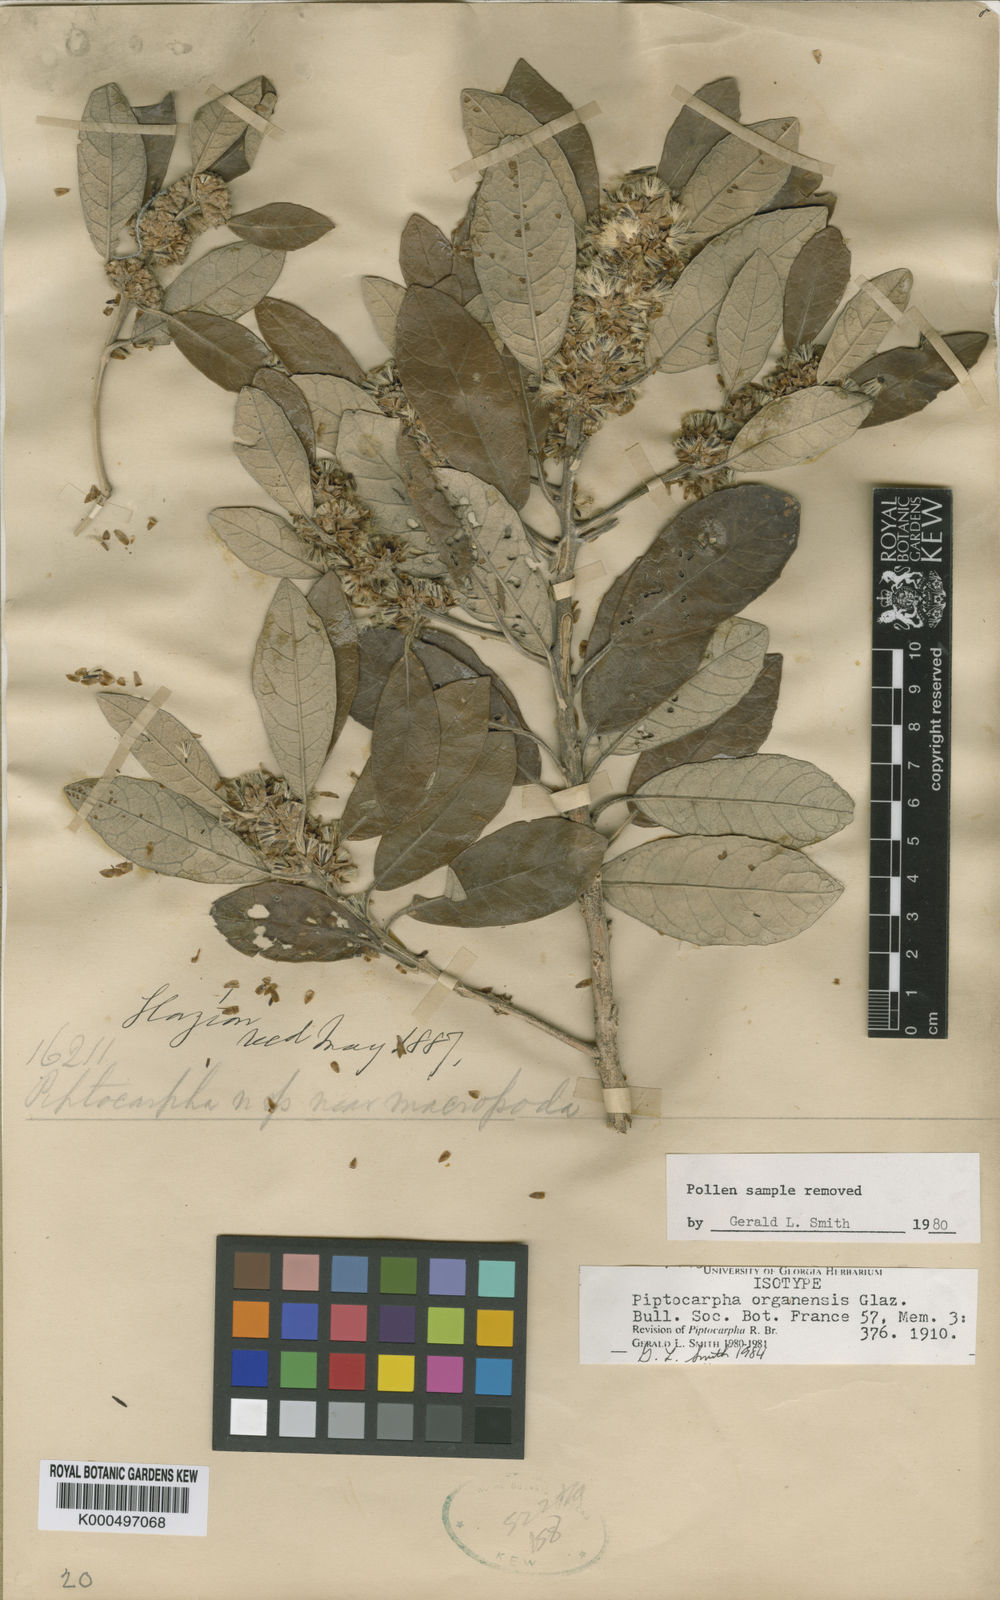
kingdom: Plantae
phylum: Tracheophyta
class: Magnoliopsida
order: Asterales
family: Asteraceae
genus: Piptocarpha
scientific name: Piptocarpha
